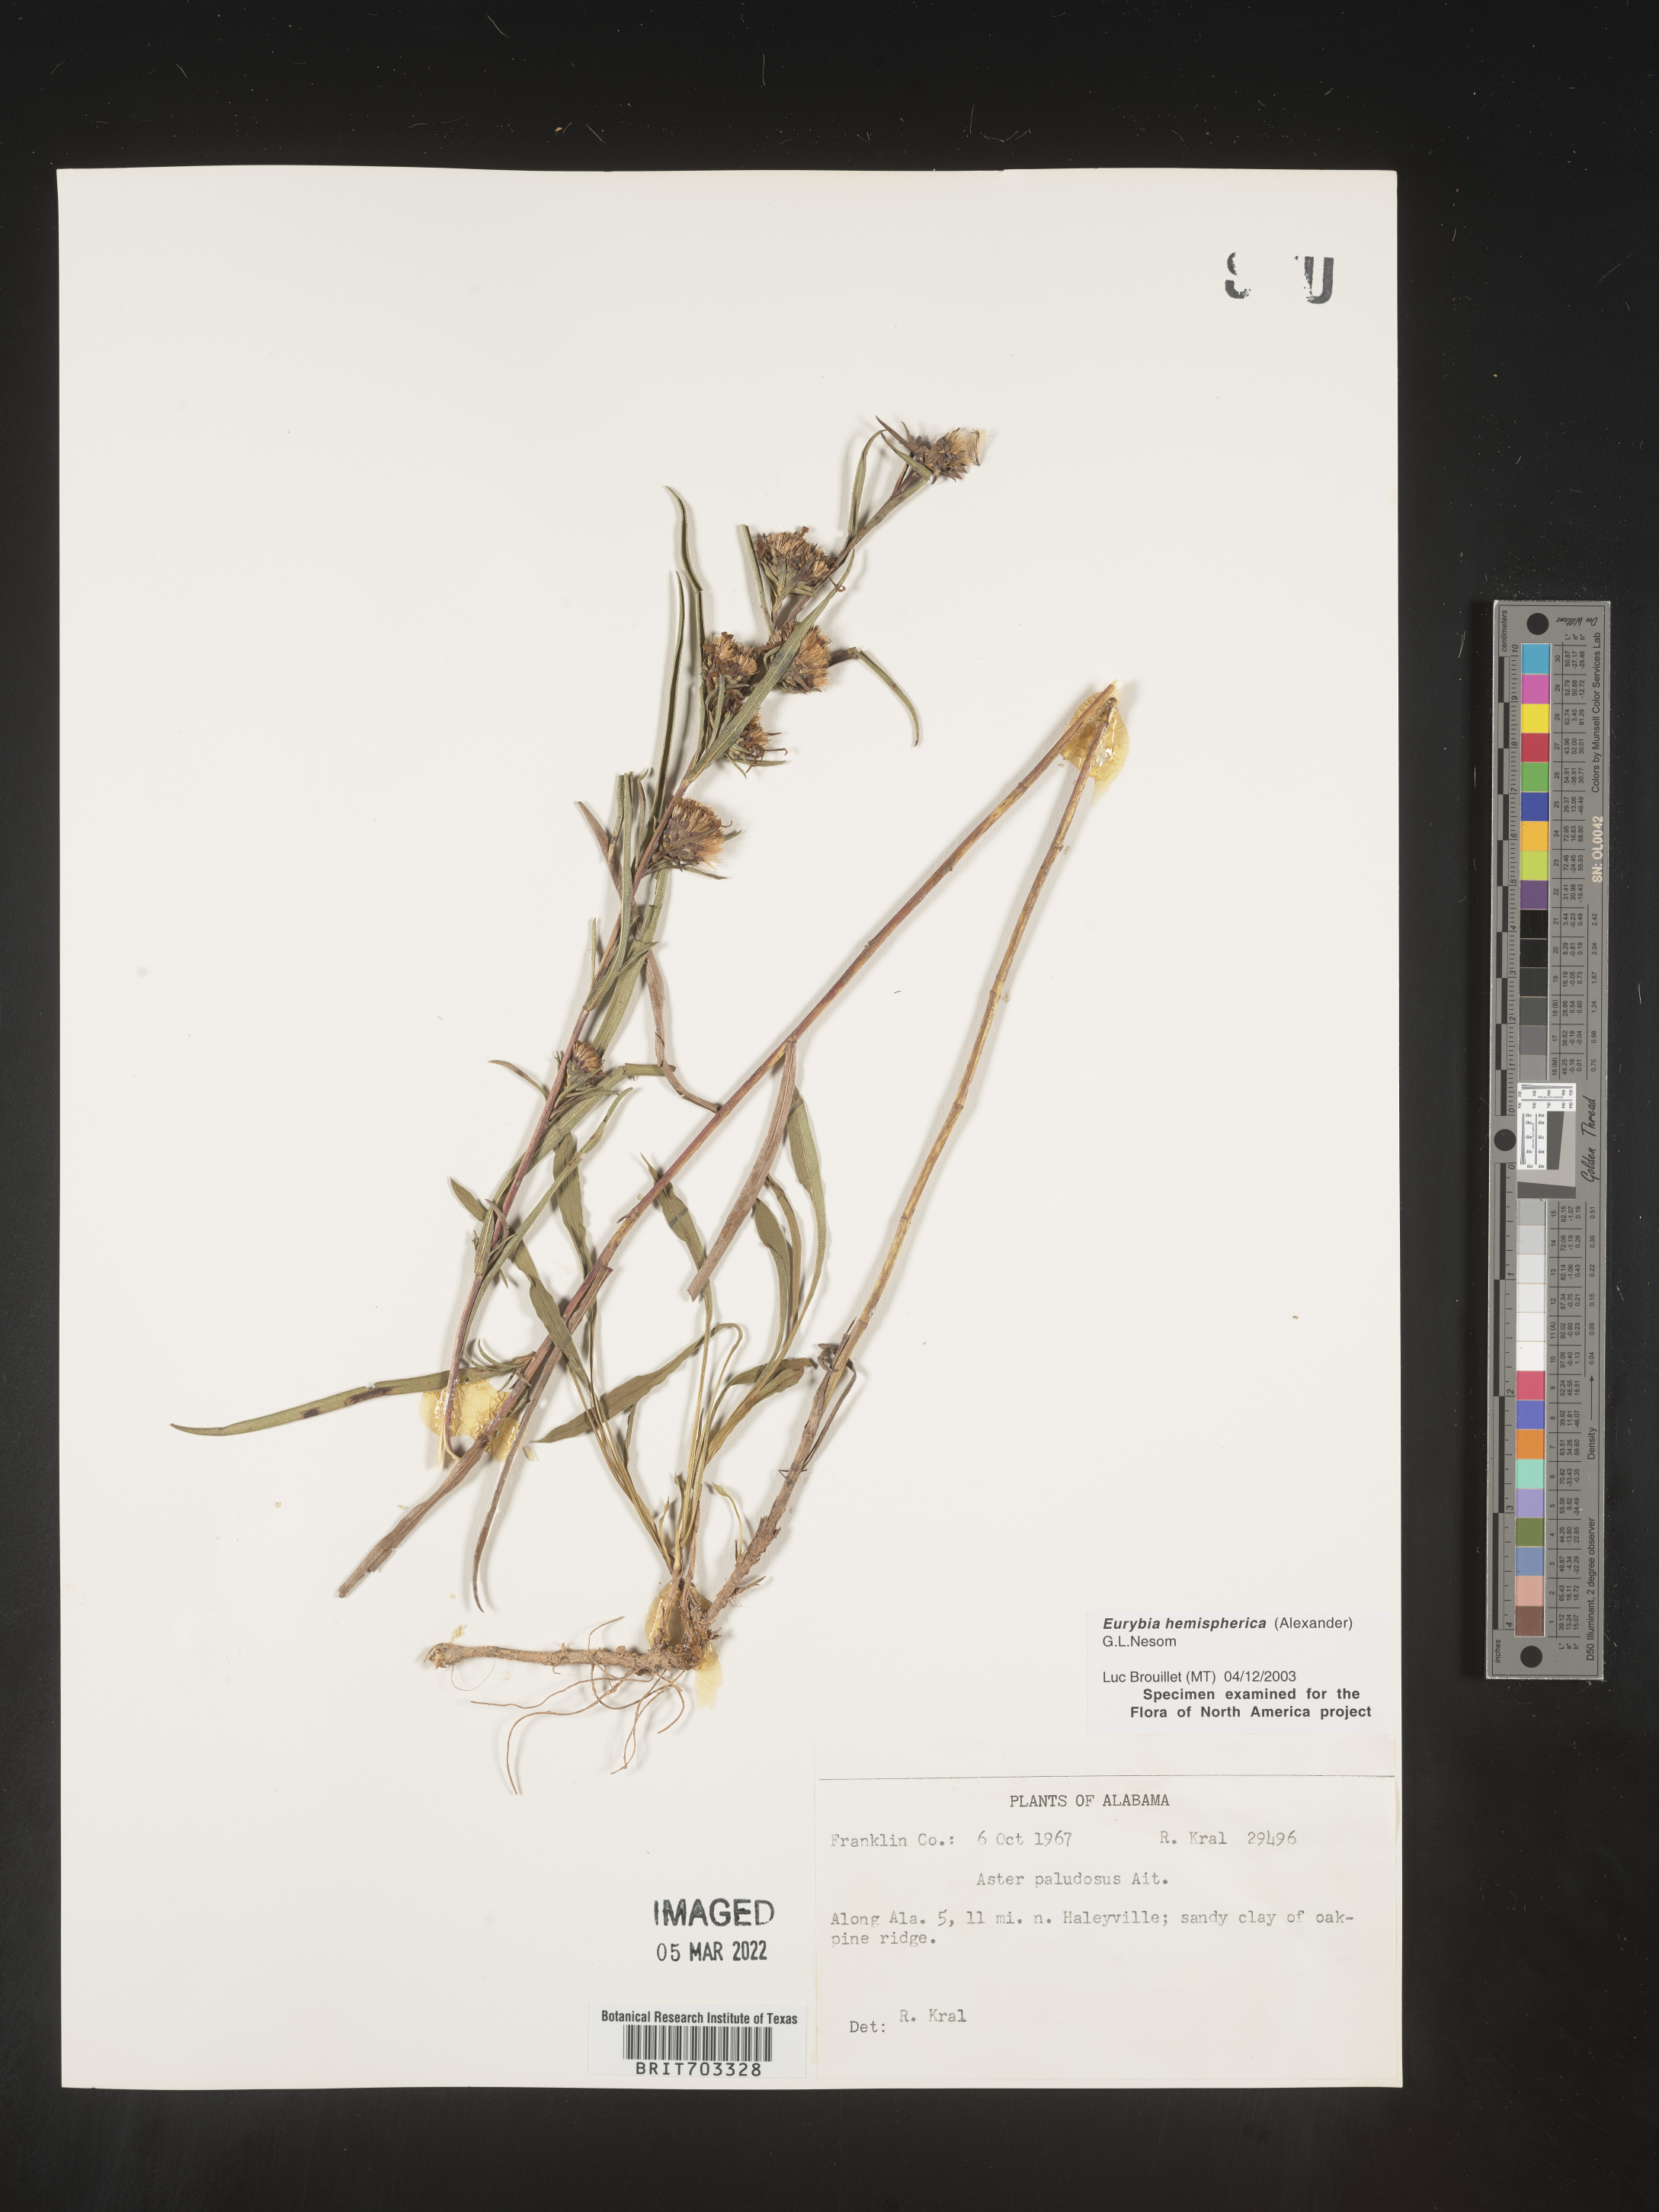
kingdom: Plantae
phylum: Tracheophyta
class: Magnoliopsida
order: Asterales
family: Asteraceae
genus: Eurybia
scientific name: Eurybia hemispherica
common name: Showy aster
